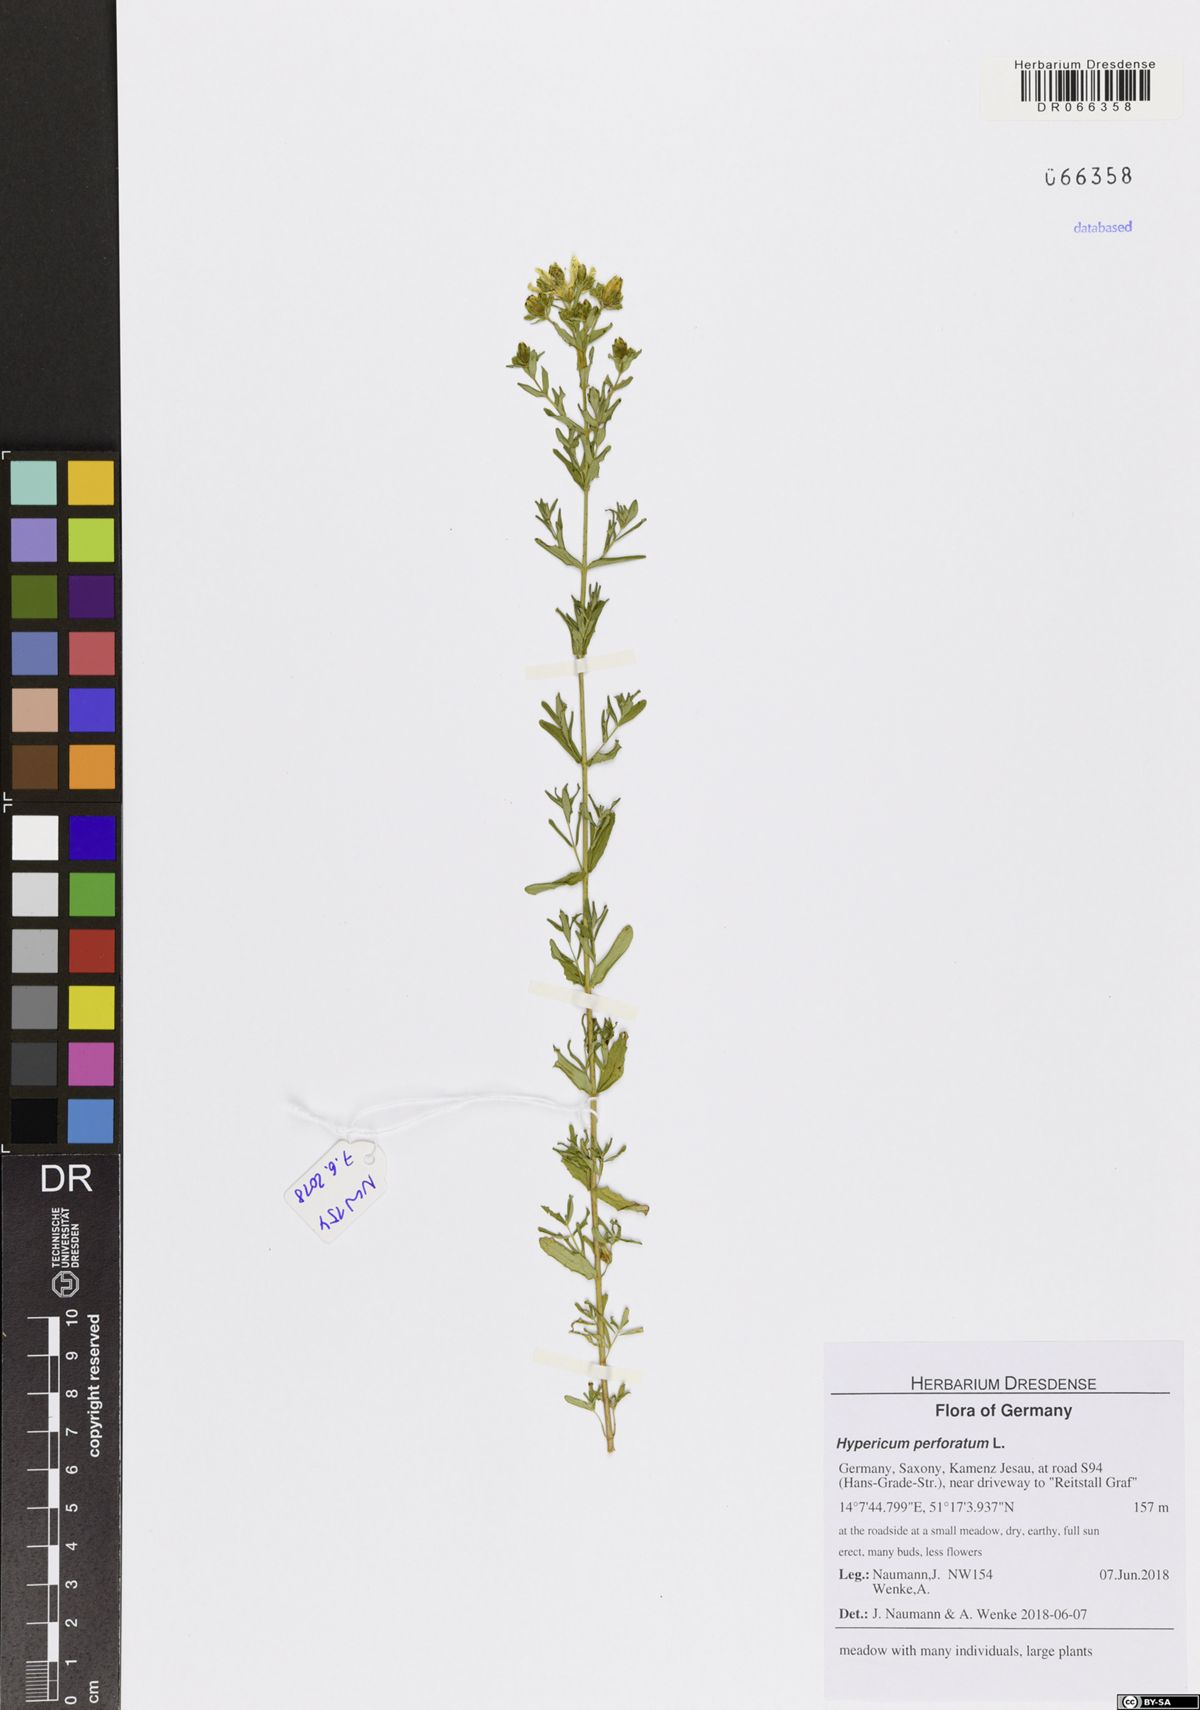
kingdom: Plantae
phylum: Tracheophyta
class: Magnoliopsida
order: Malpighiales
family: Hypericaceae
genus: Hypericum
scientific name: Hypericum perforatum
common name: Common st. johnswort
